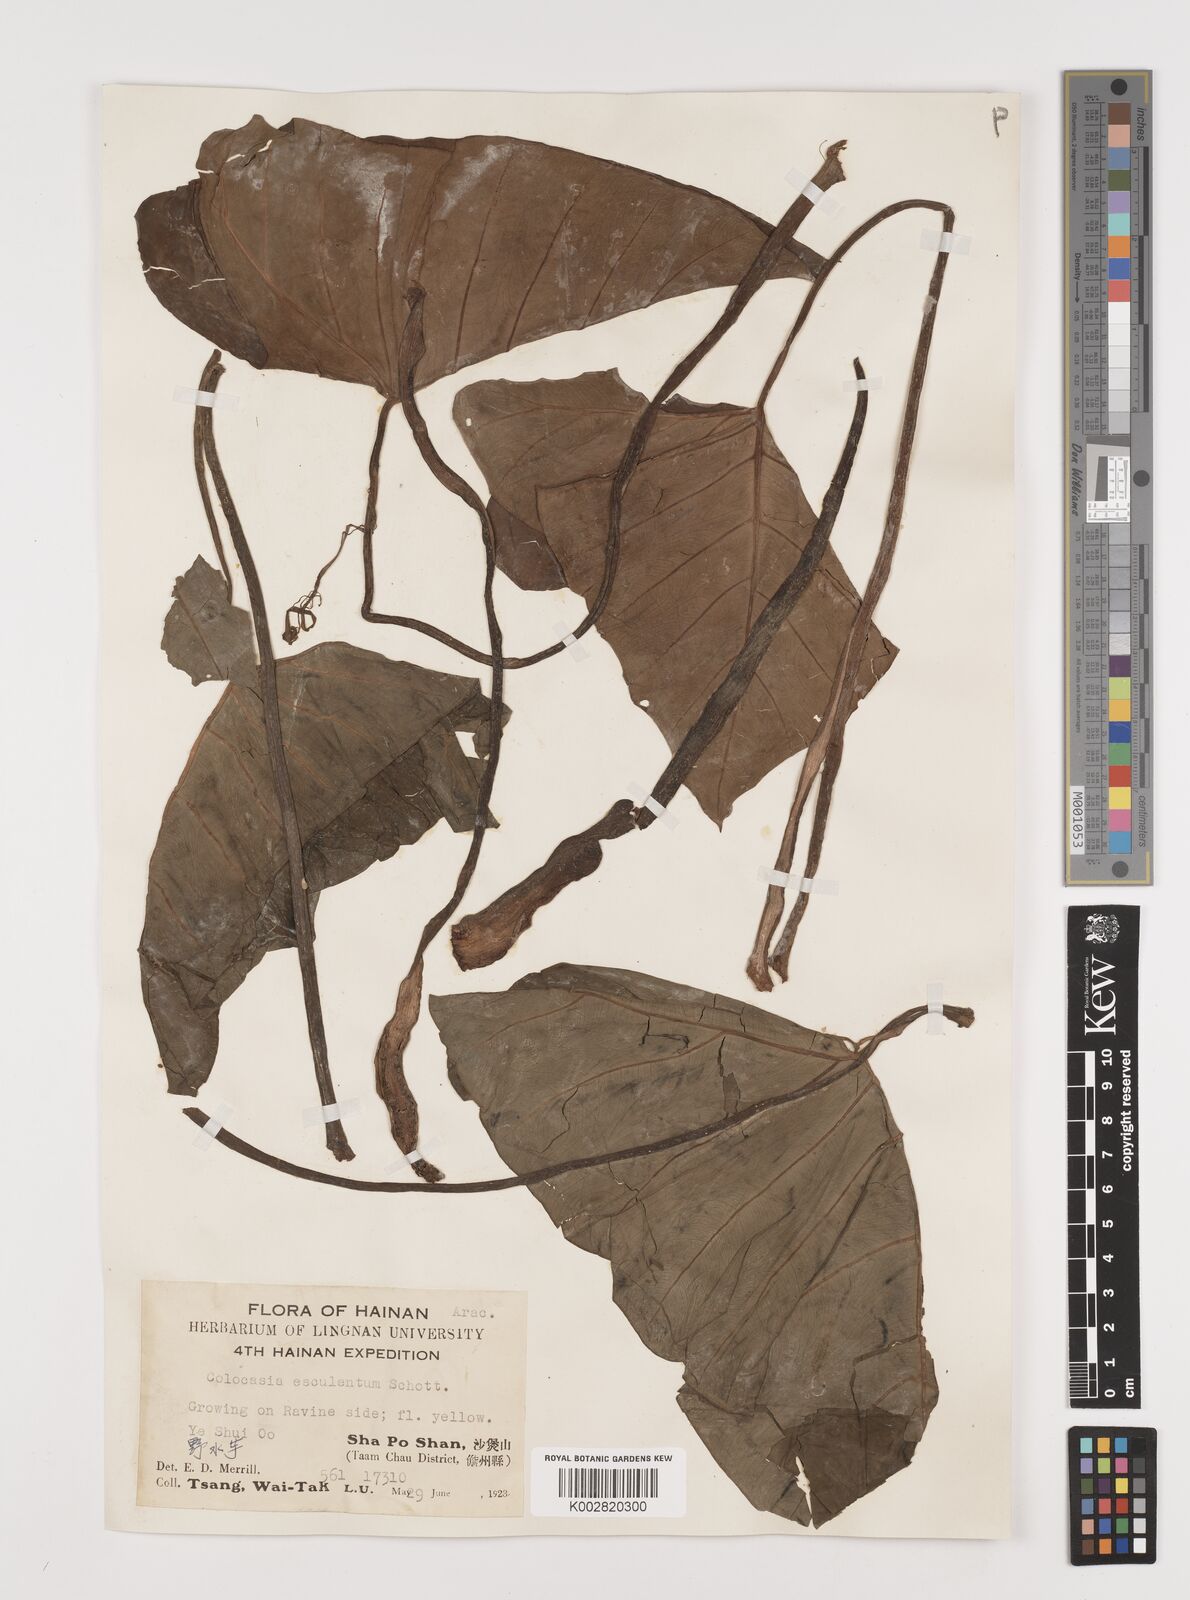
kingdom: Plantae
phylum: Tracheophyta
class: Liliopsida
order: Alismatales
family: Araceae
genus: Colocasia
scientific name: Colocasia esculenta
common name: Taro
